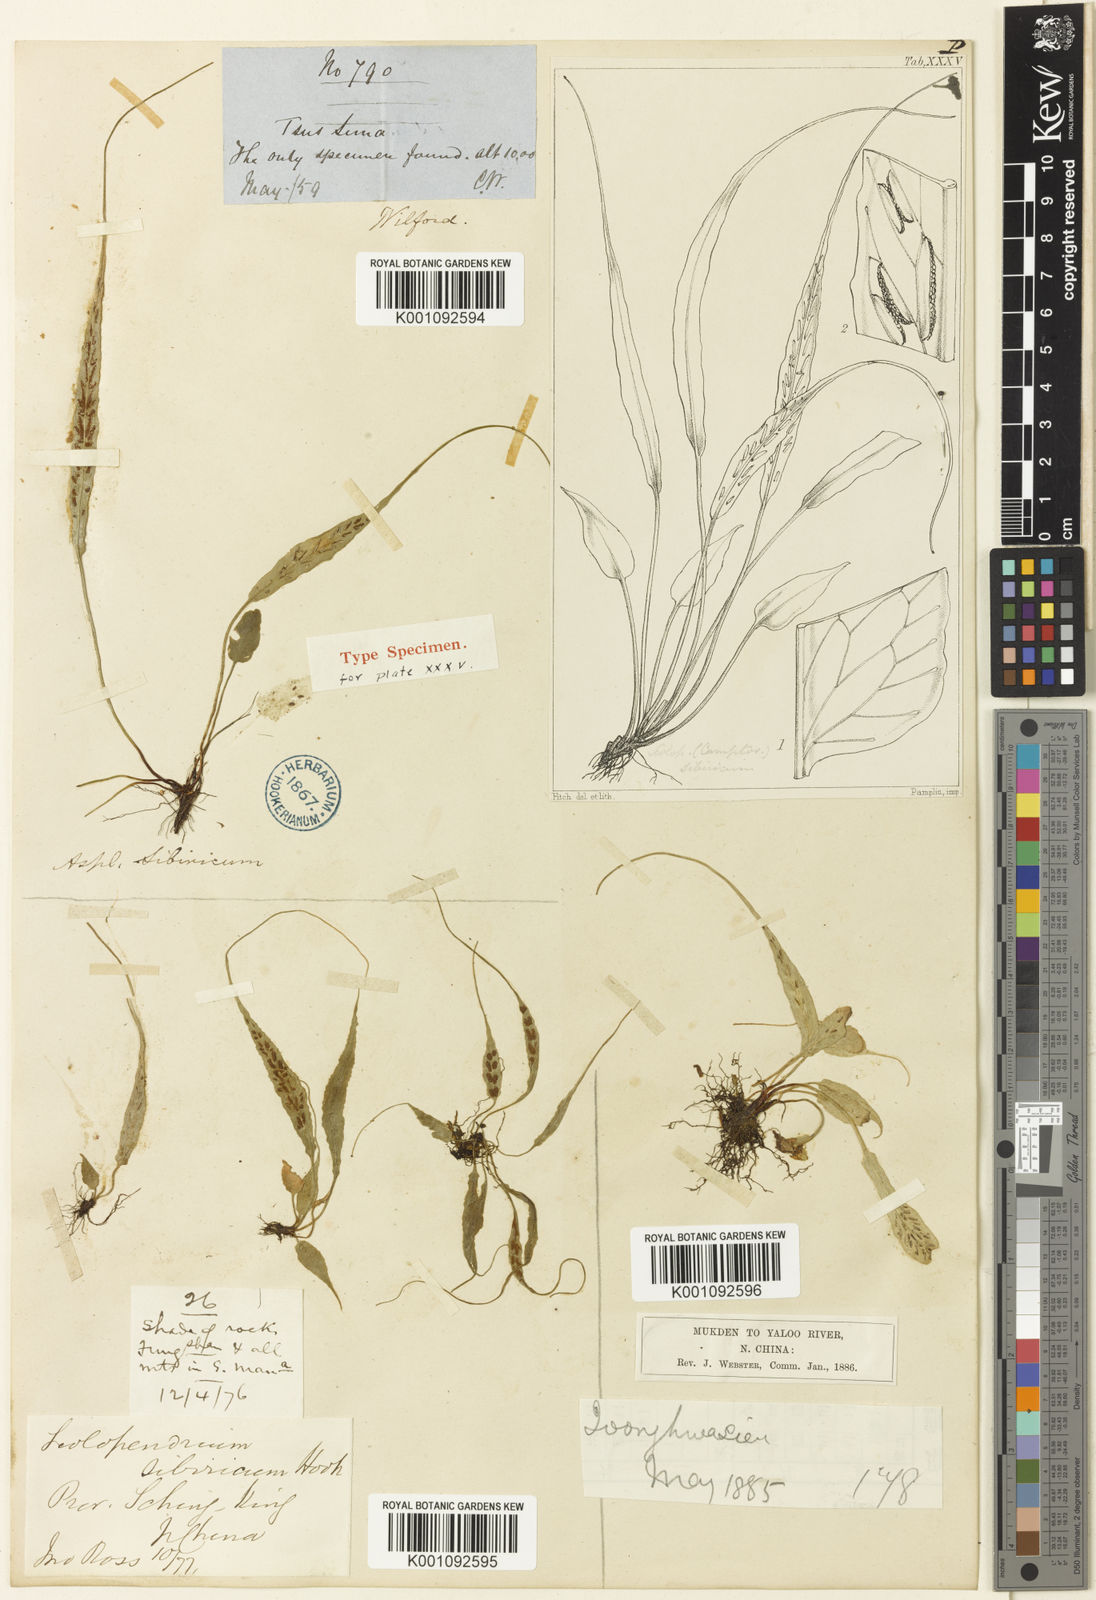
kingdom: Plantae
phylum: Tracheophyta
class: Polypodiopsida
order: Polypodiales
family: Aspleniaceae
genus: Asplenium
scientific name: Asplenium ruprechtii
